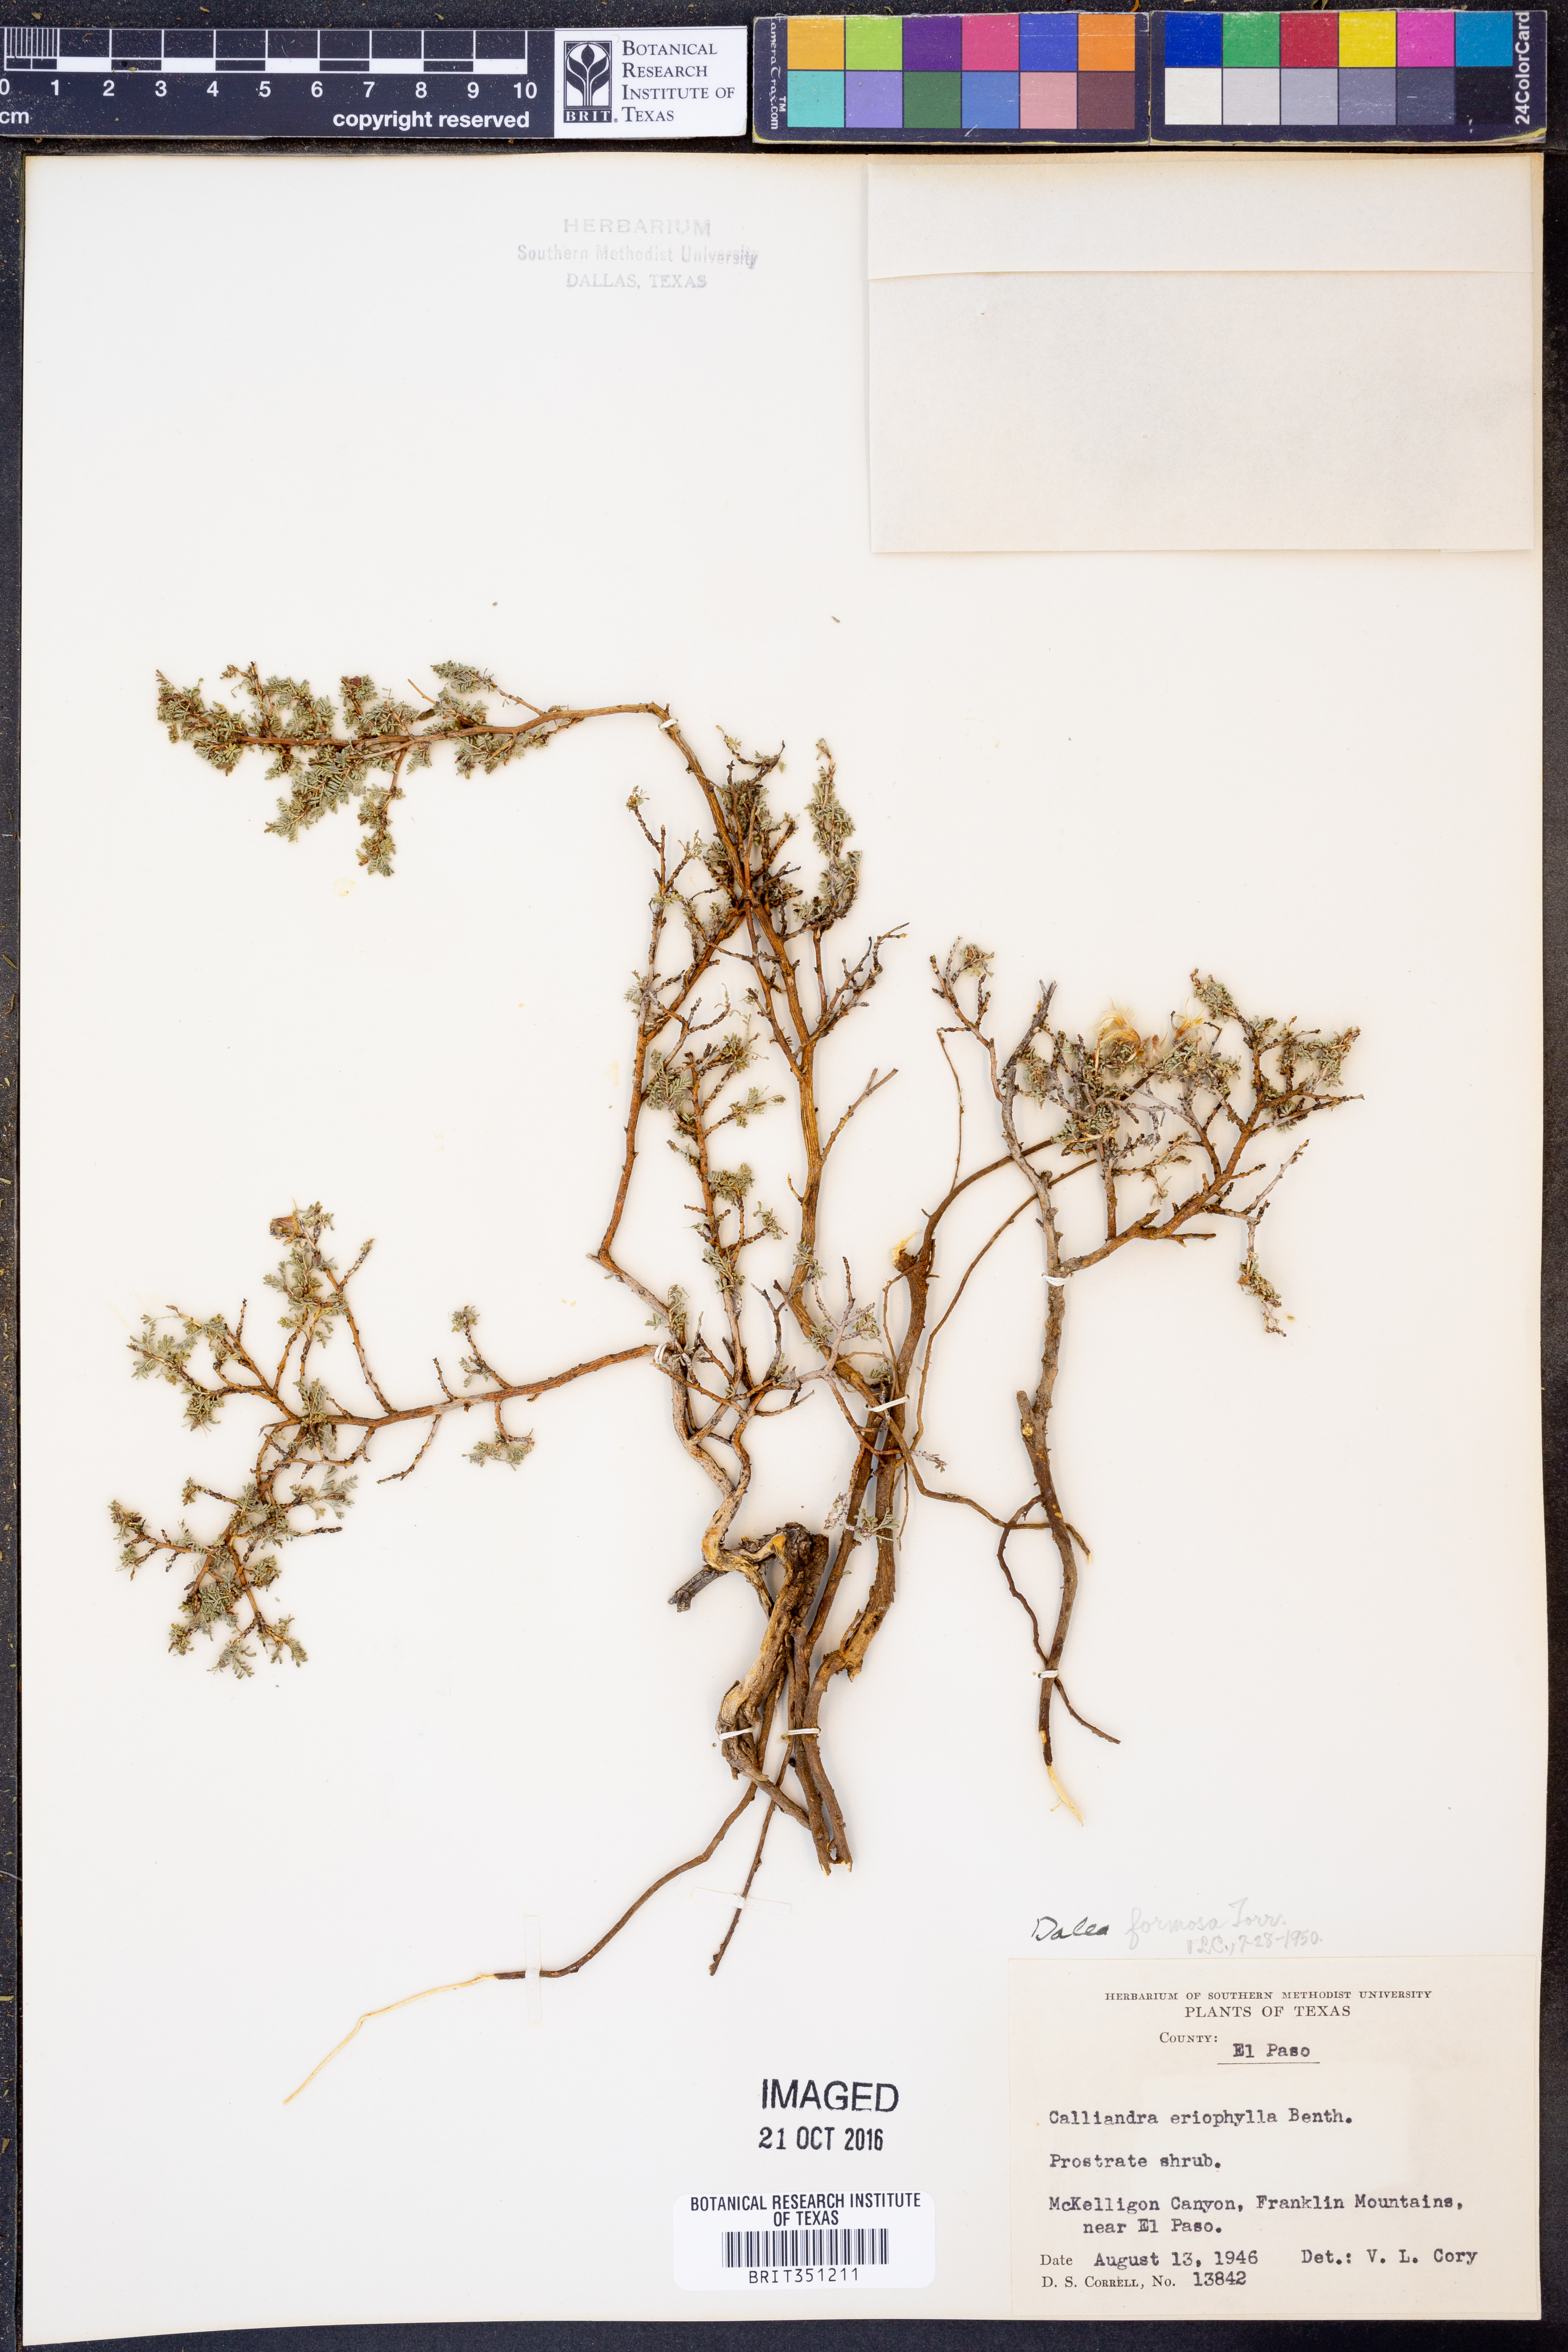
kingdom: Plantae
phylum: Tracheophyta
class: Magnoliopsida
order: Fabales
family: Fabaceae
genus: Dalea
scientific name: Dalea formosa
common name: Feather-plume dalea
